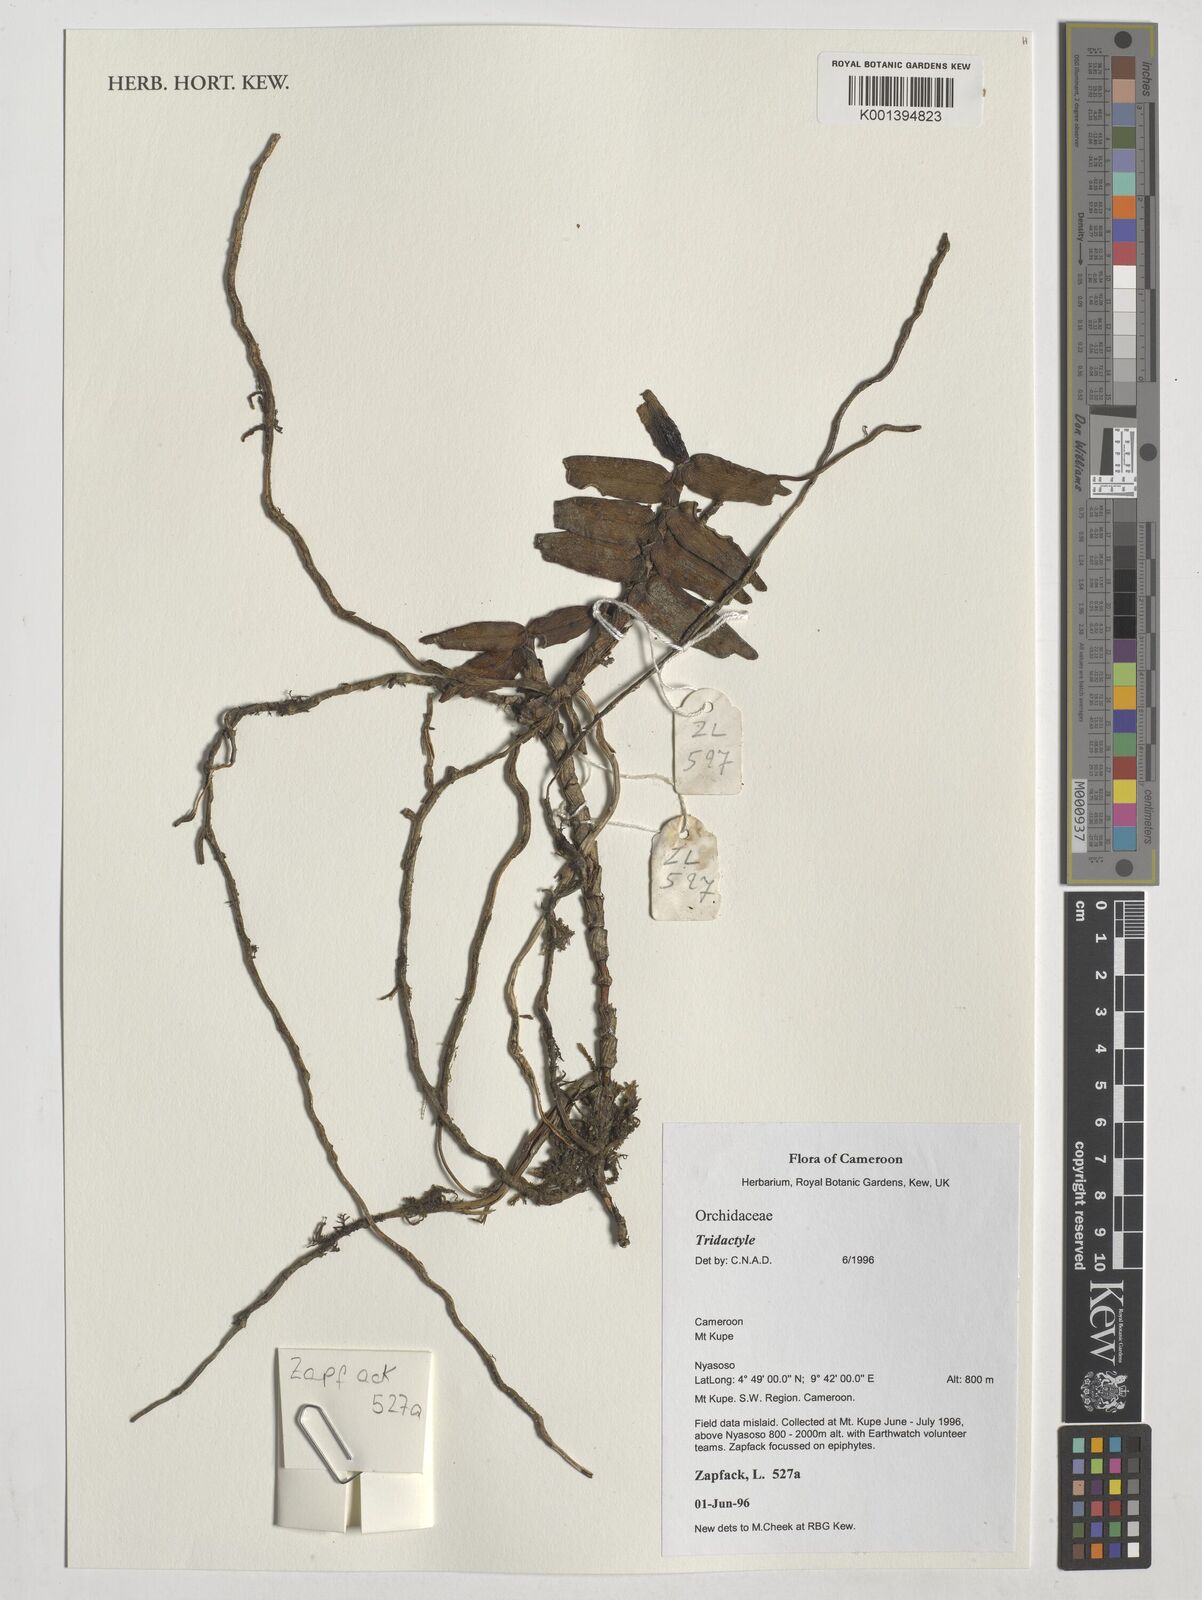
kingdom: Plantae
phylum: Tracheophyta
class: Liliopsida
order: Asparagales
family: Orchidaceae
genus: Tridactyle
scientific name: Tridactyle
